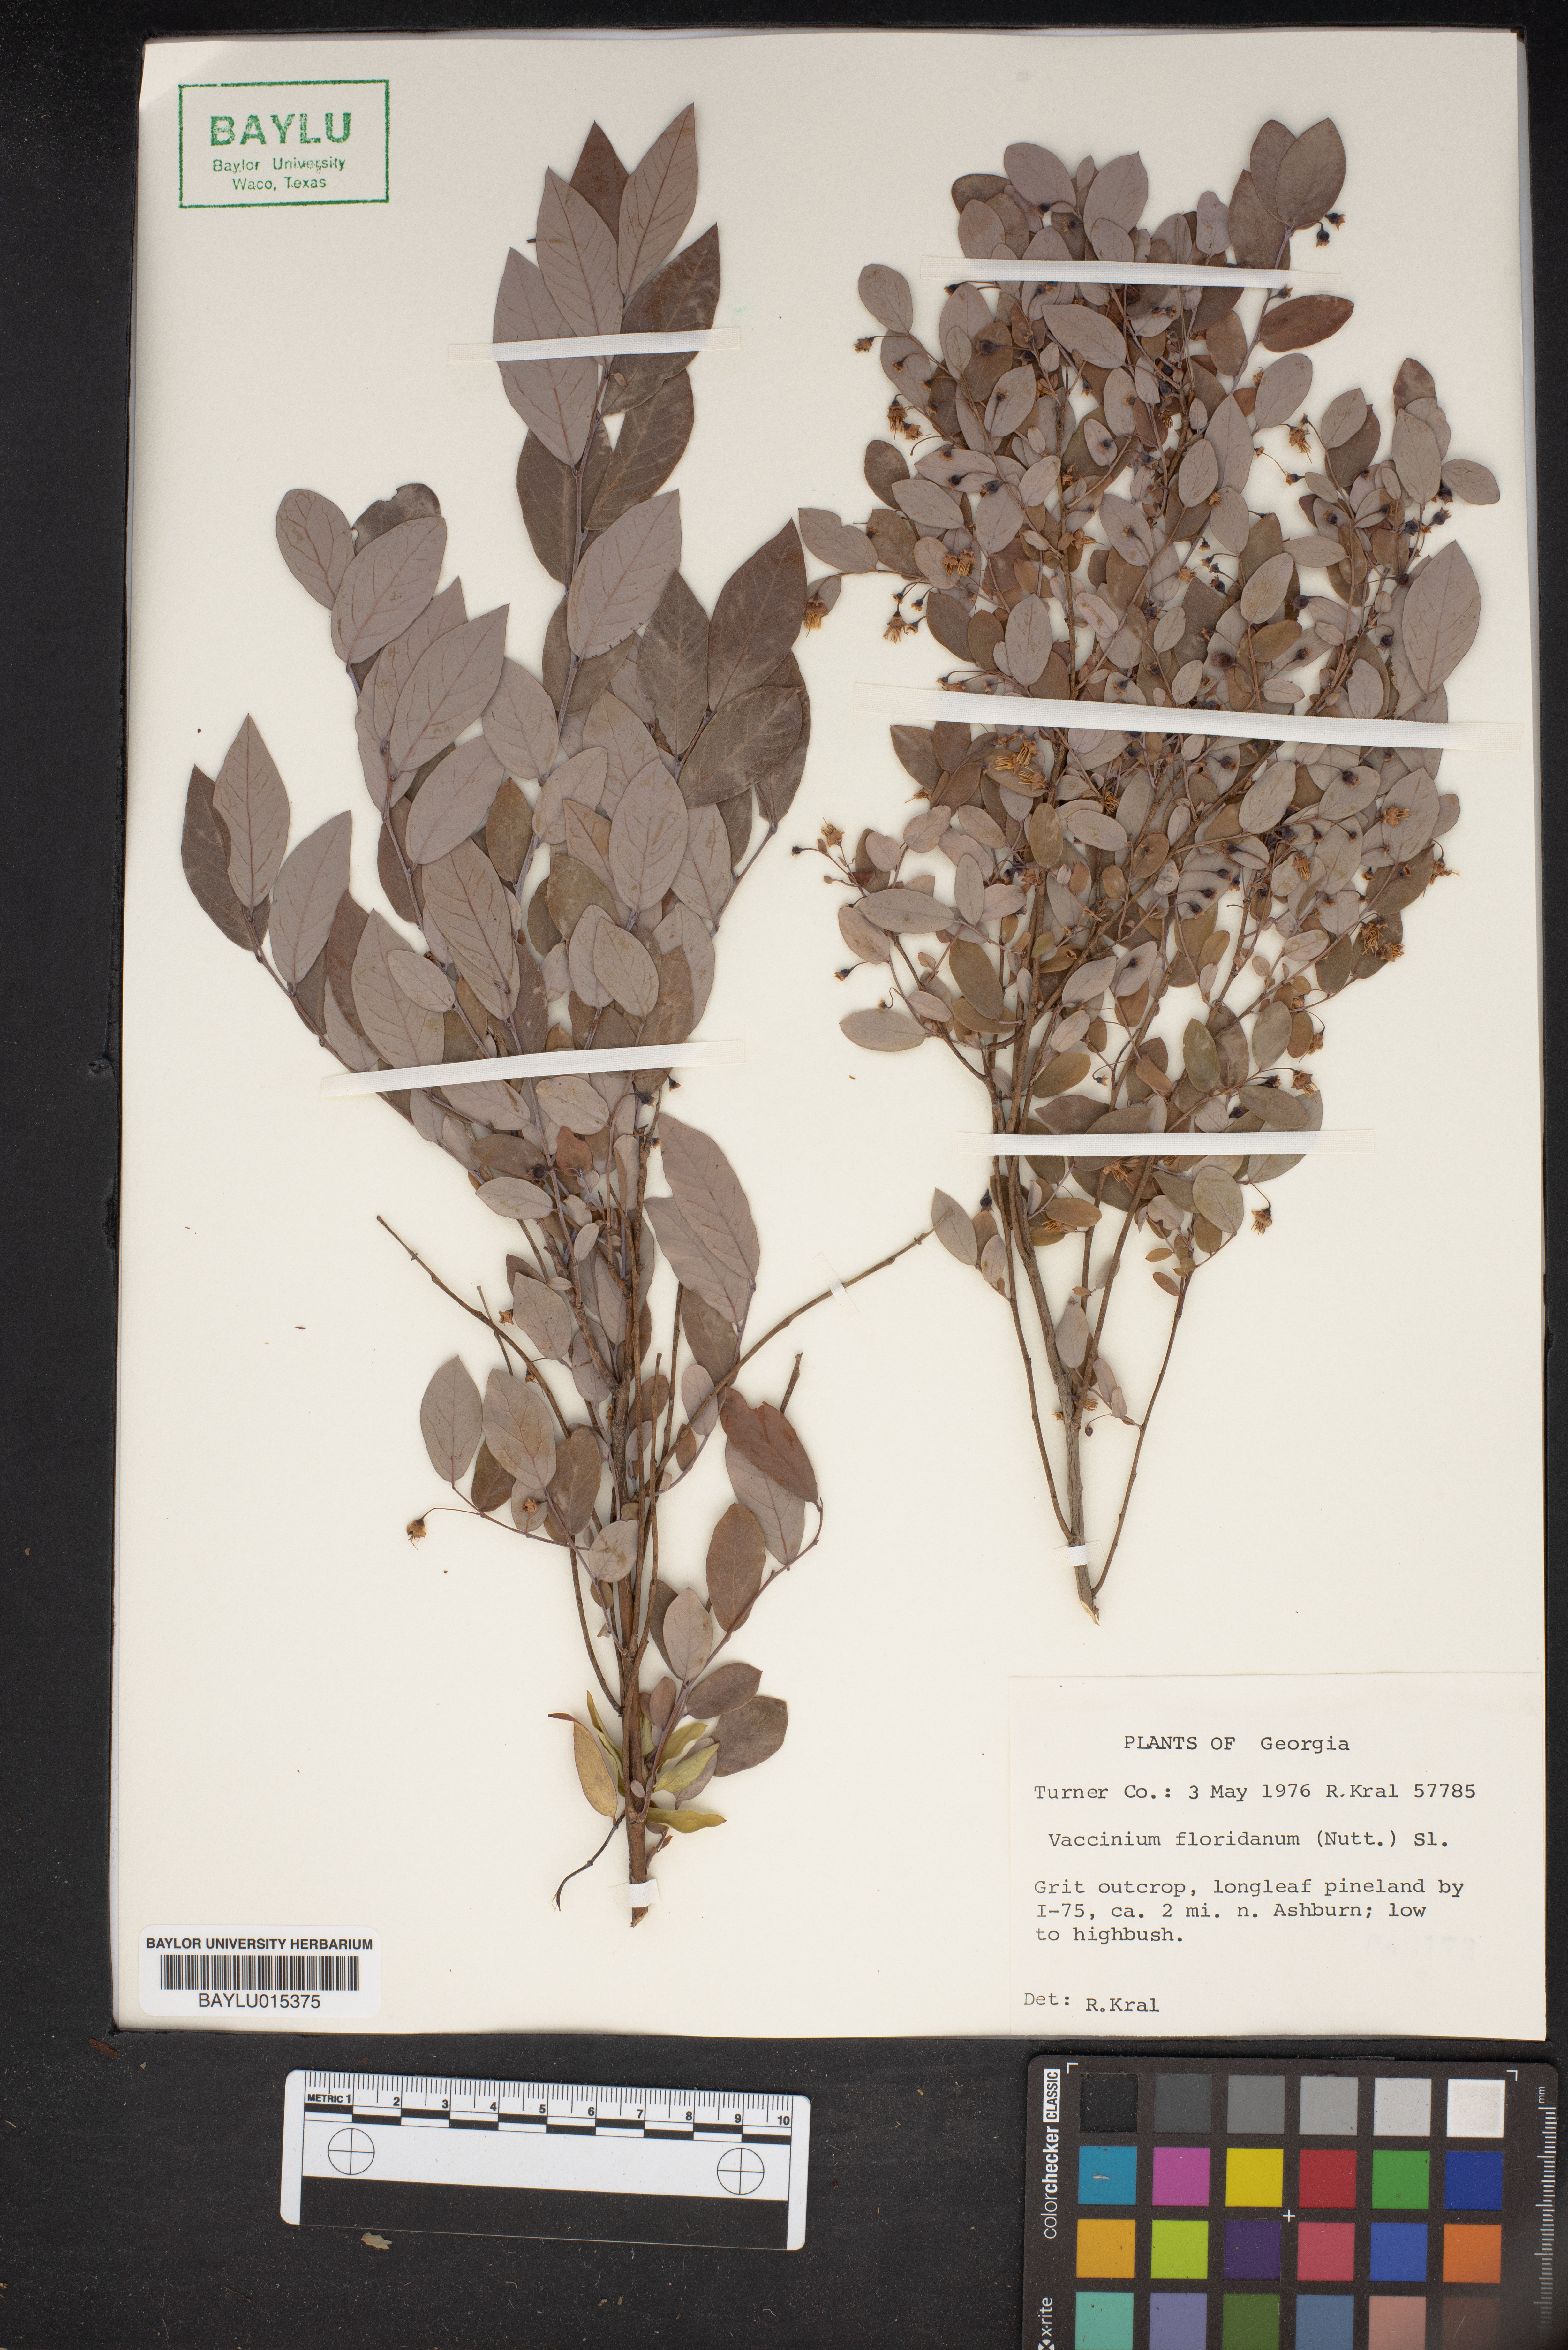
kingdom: Plantae
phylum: Tracheophyta
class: Magnoliopsida
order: Ericales
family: Ericaceae
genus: Vaccinium
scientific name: Vaccinium stamineum
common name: Deerberry
